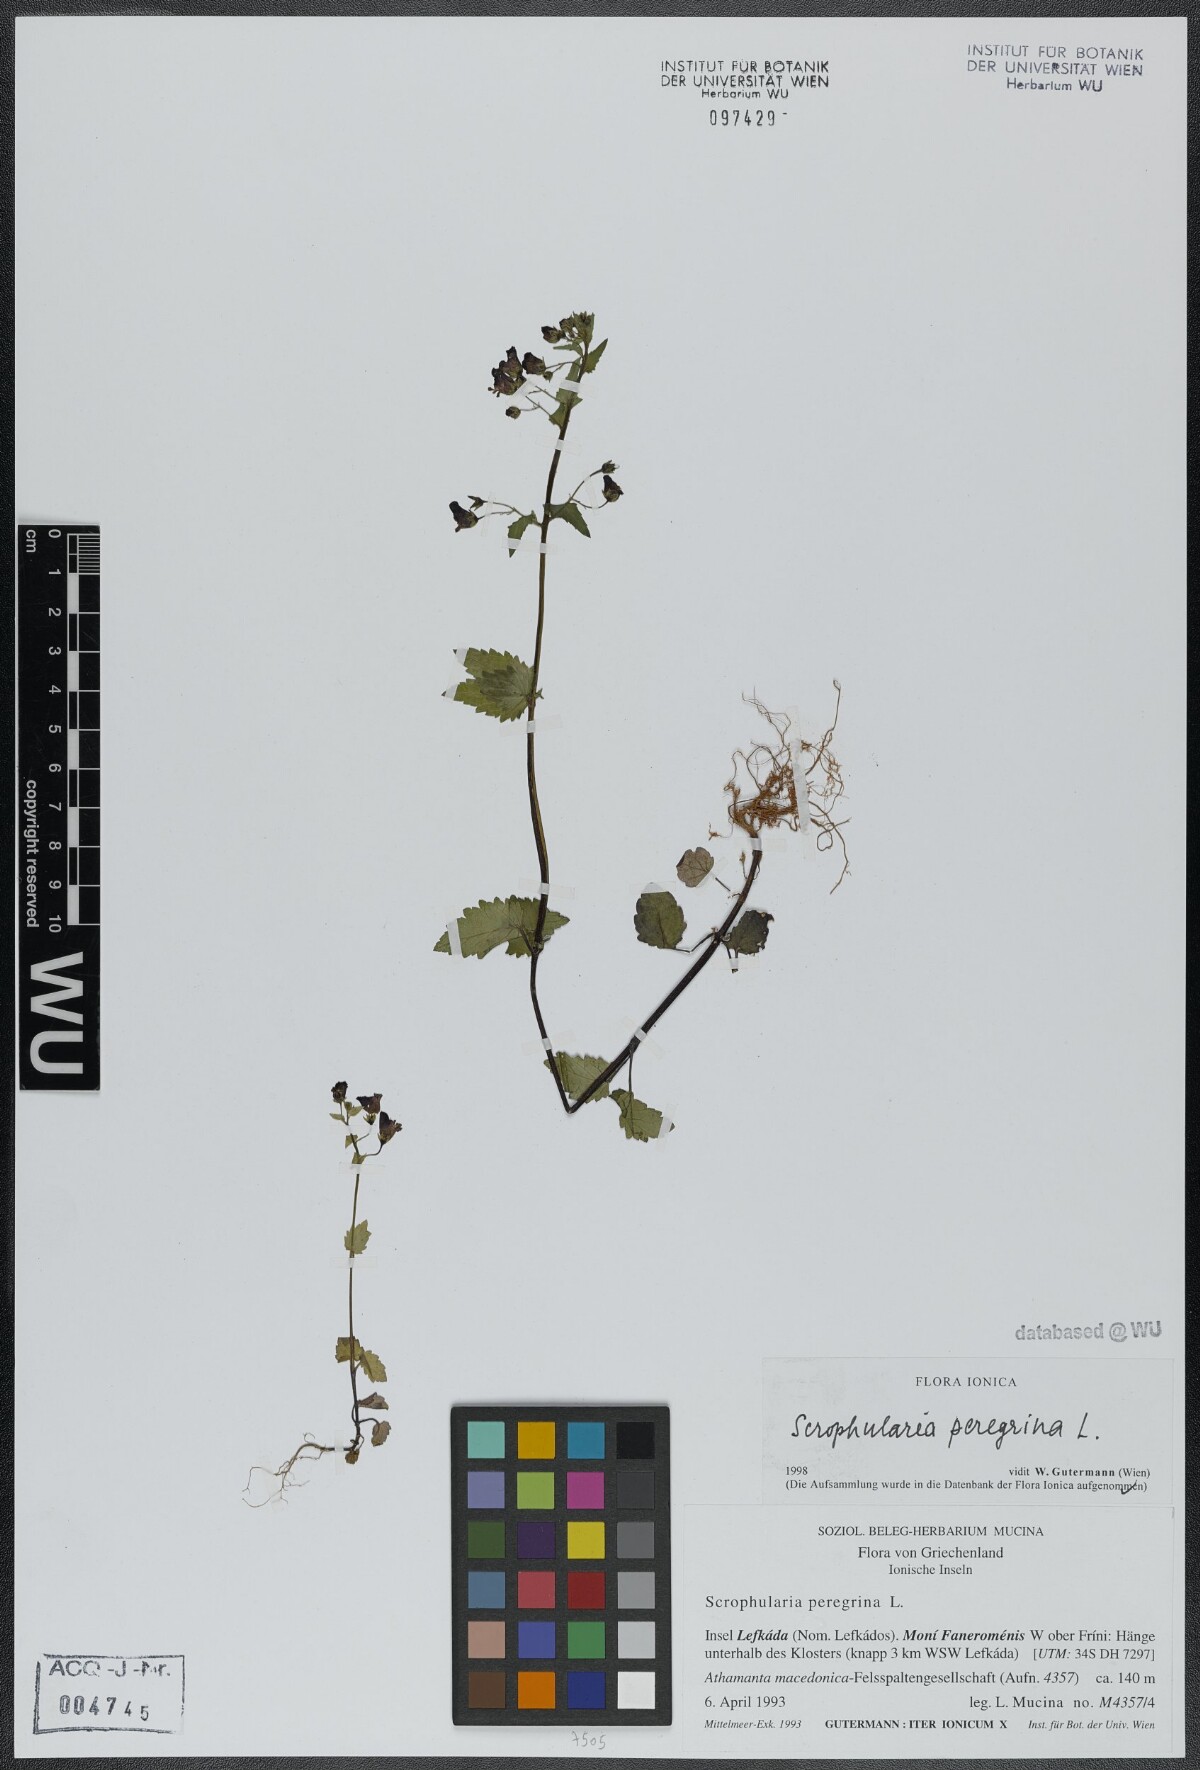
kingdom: Plantae
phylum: Tracheophyta
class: Magnoliopsida
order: Lamiales
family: Scrophulariaceae
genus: Scrophularia
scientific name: Scrophularia peregrina
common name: Mediterranean figwort
